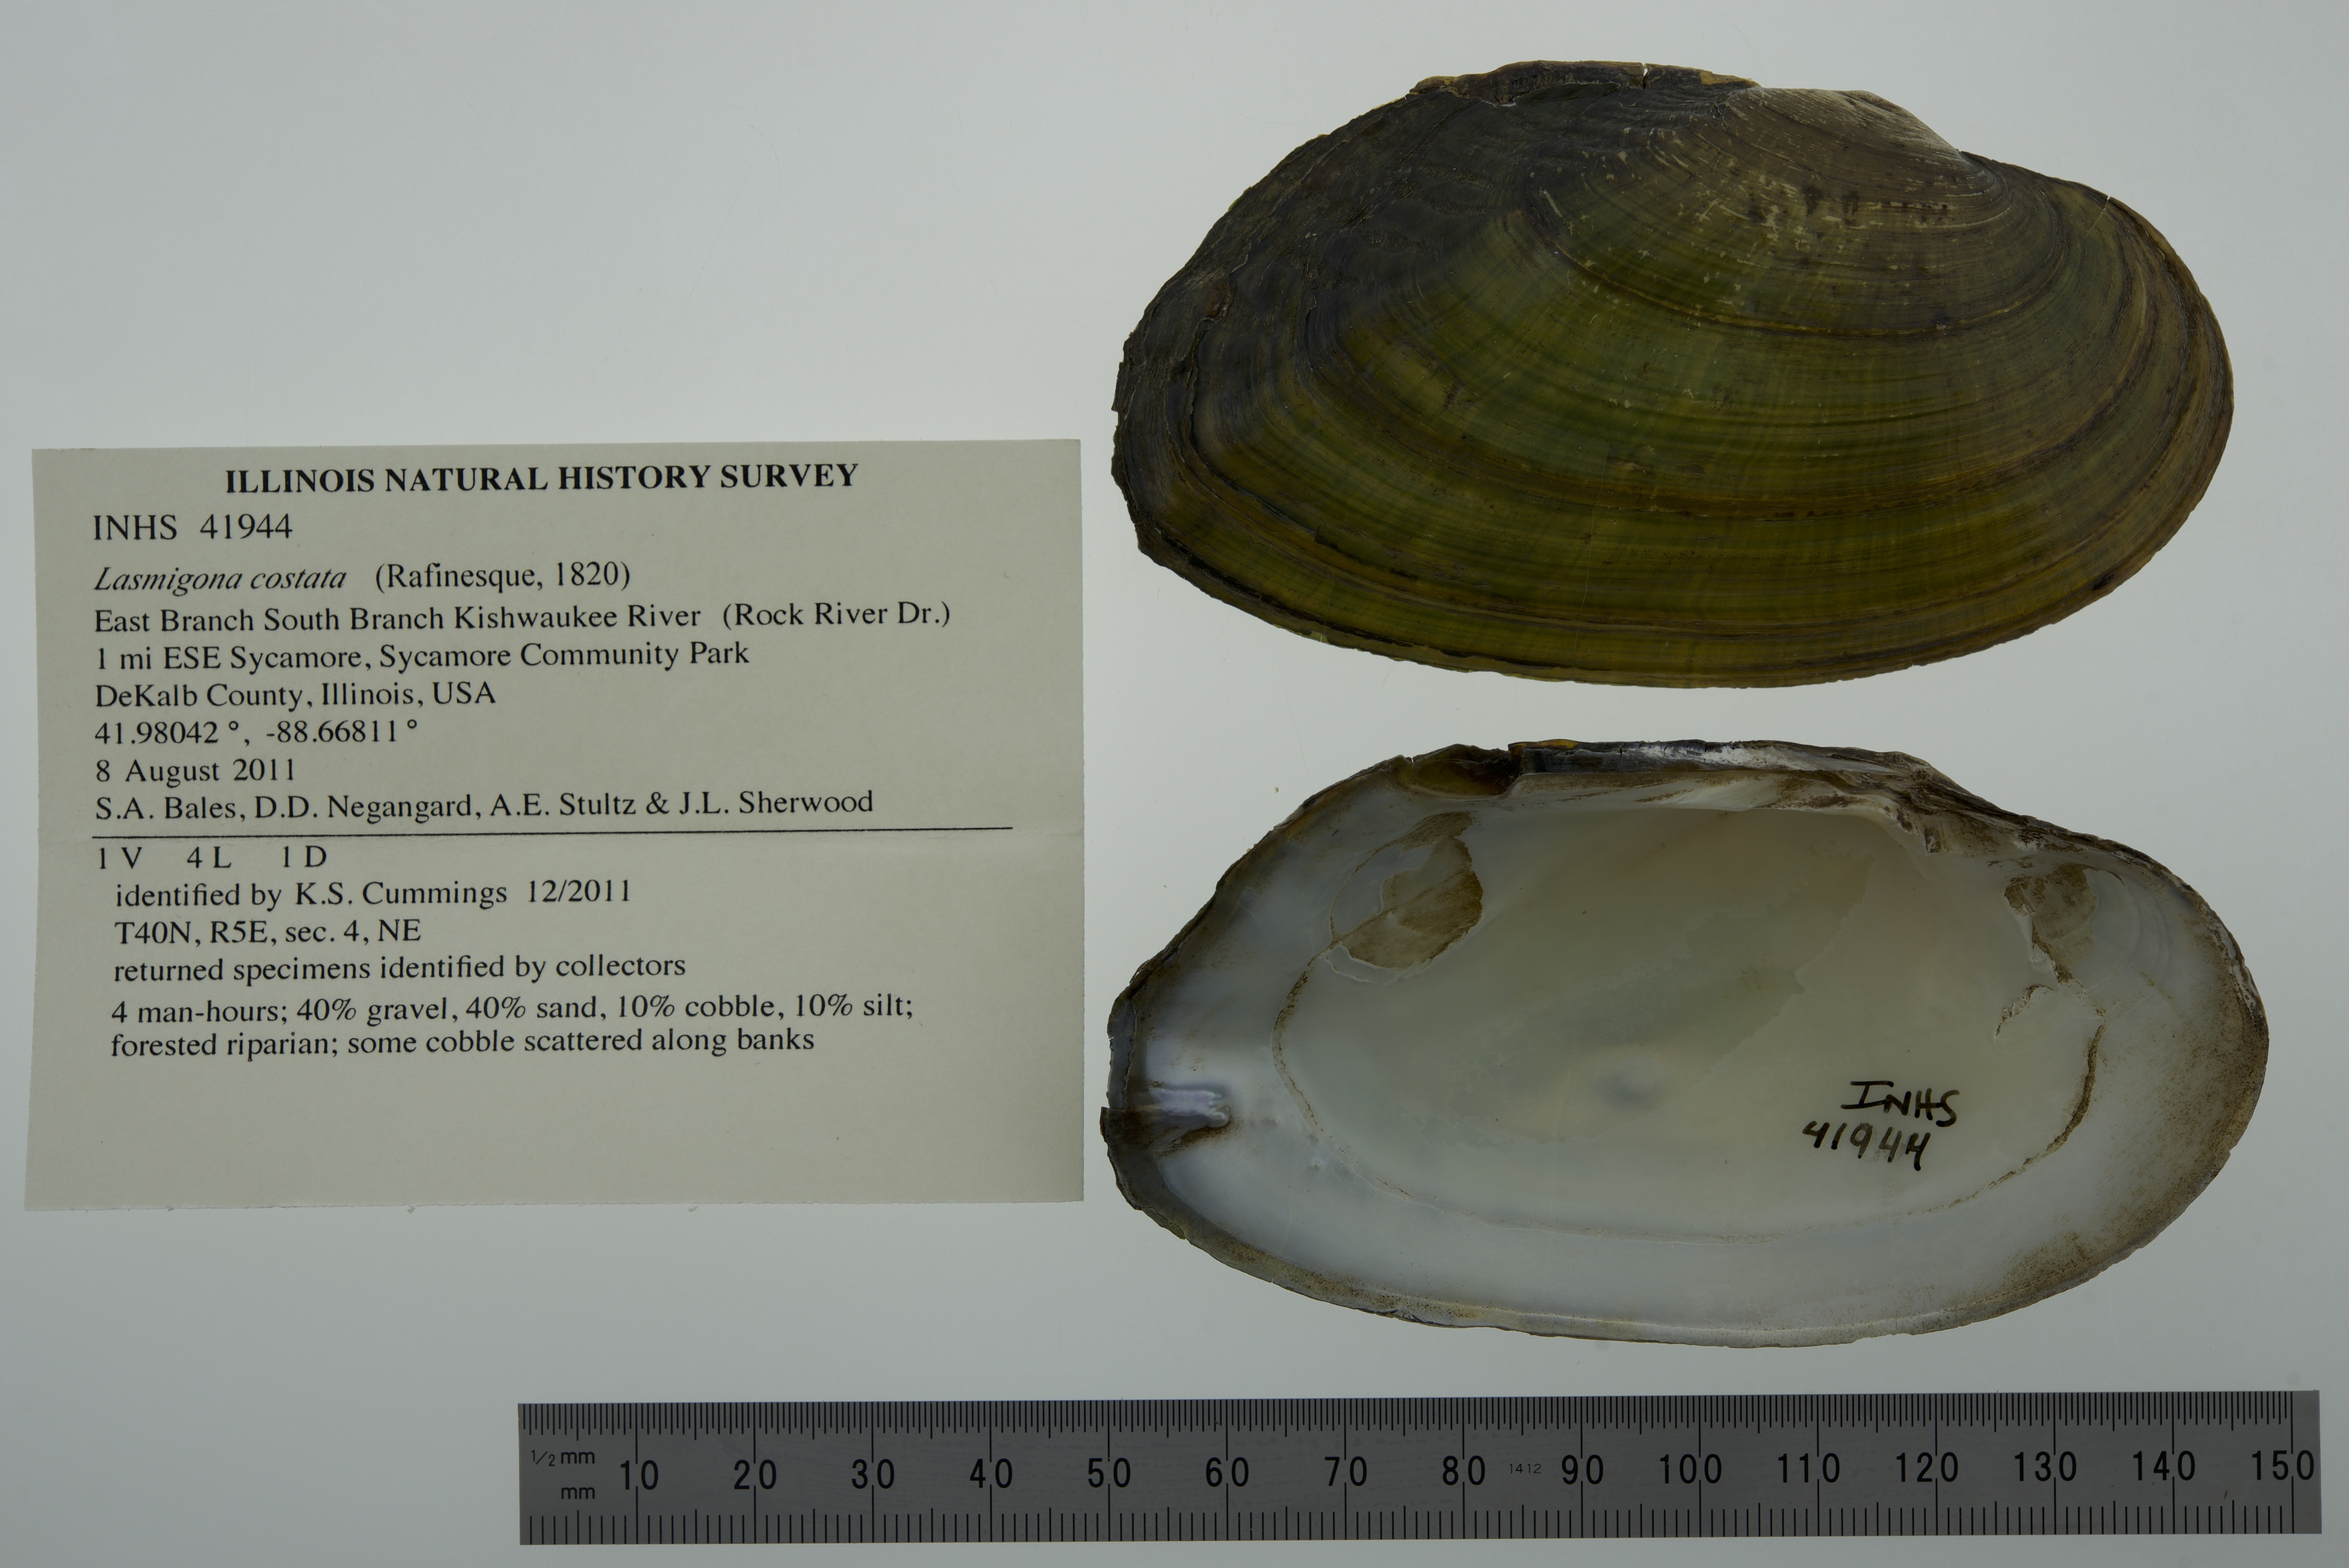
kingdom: Animalia
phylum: Mollusca
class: Bivalvia
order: Unionida
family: Unionidae
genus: Lasmigona
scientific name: Lasmigona costata
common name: Flutedshell
